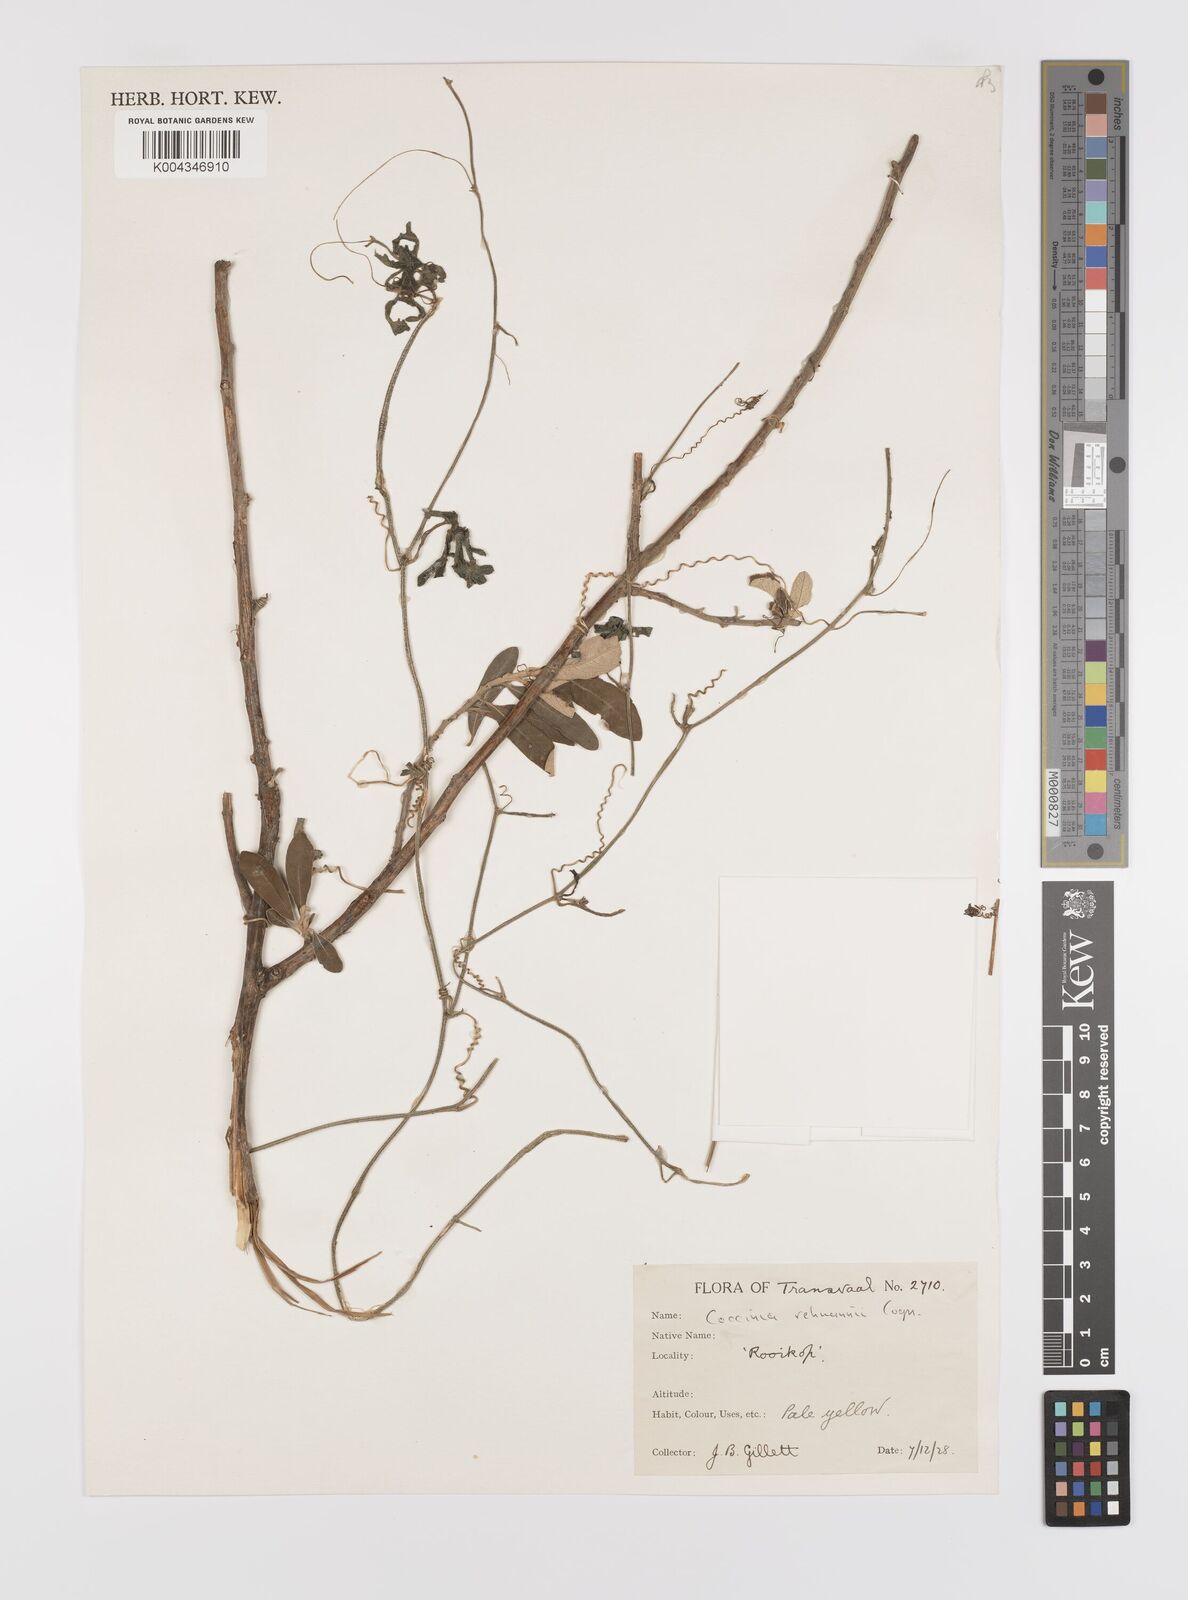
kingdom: Plantae
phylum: Tracheophyta
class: Magnoliopsida
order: Cucurbitales
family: Cucurbitaceae
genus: Coccinia
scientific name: Coccinia rehmannii
